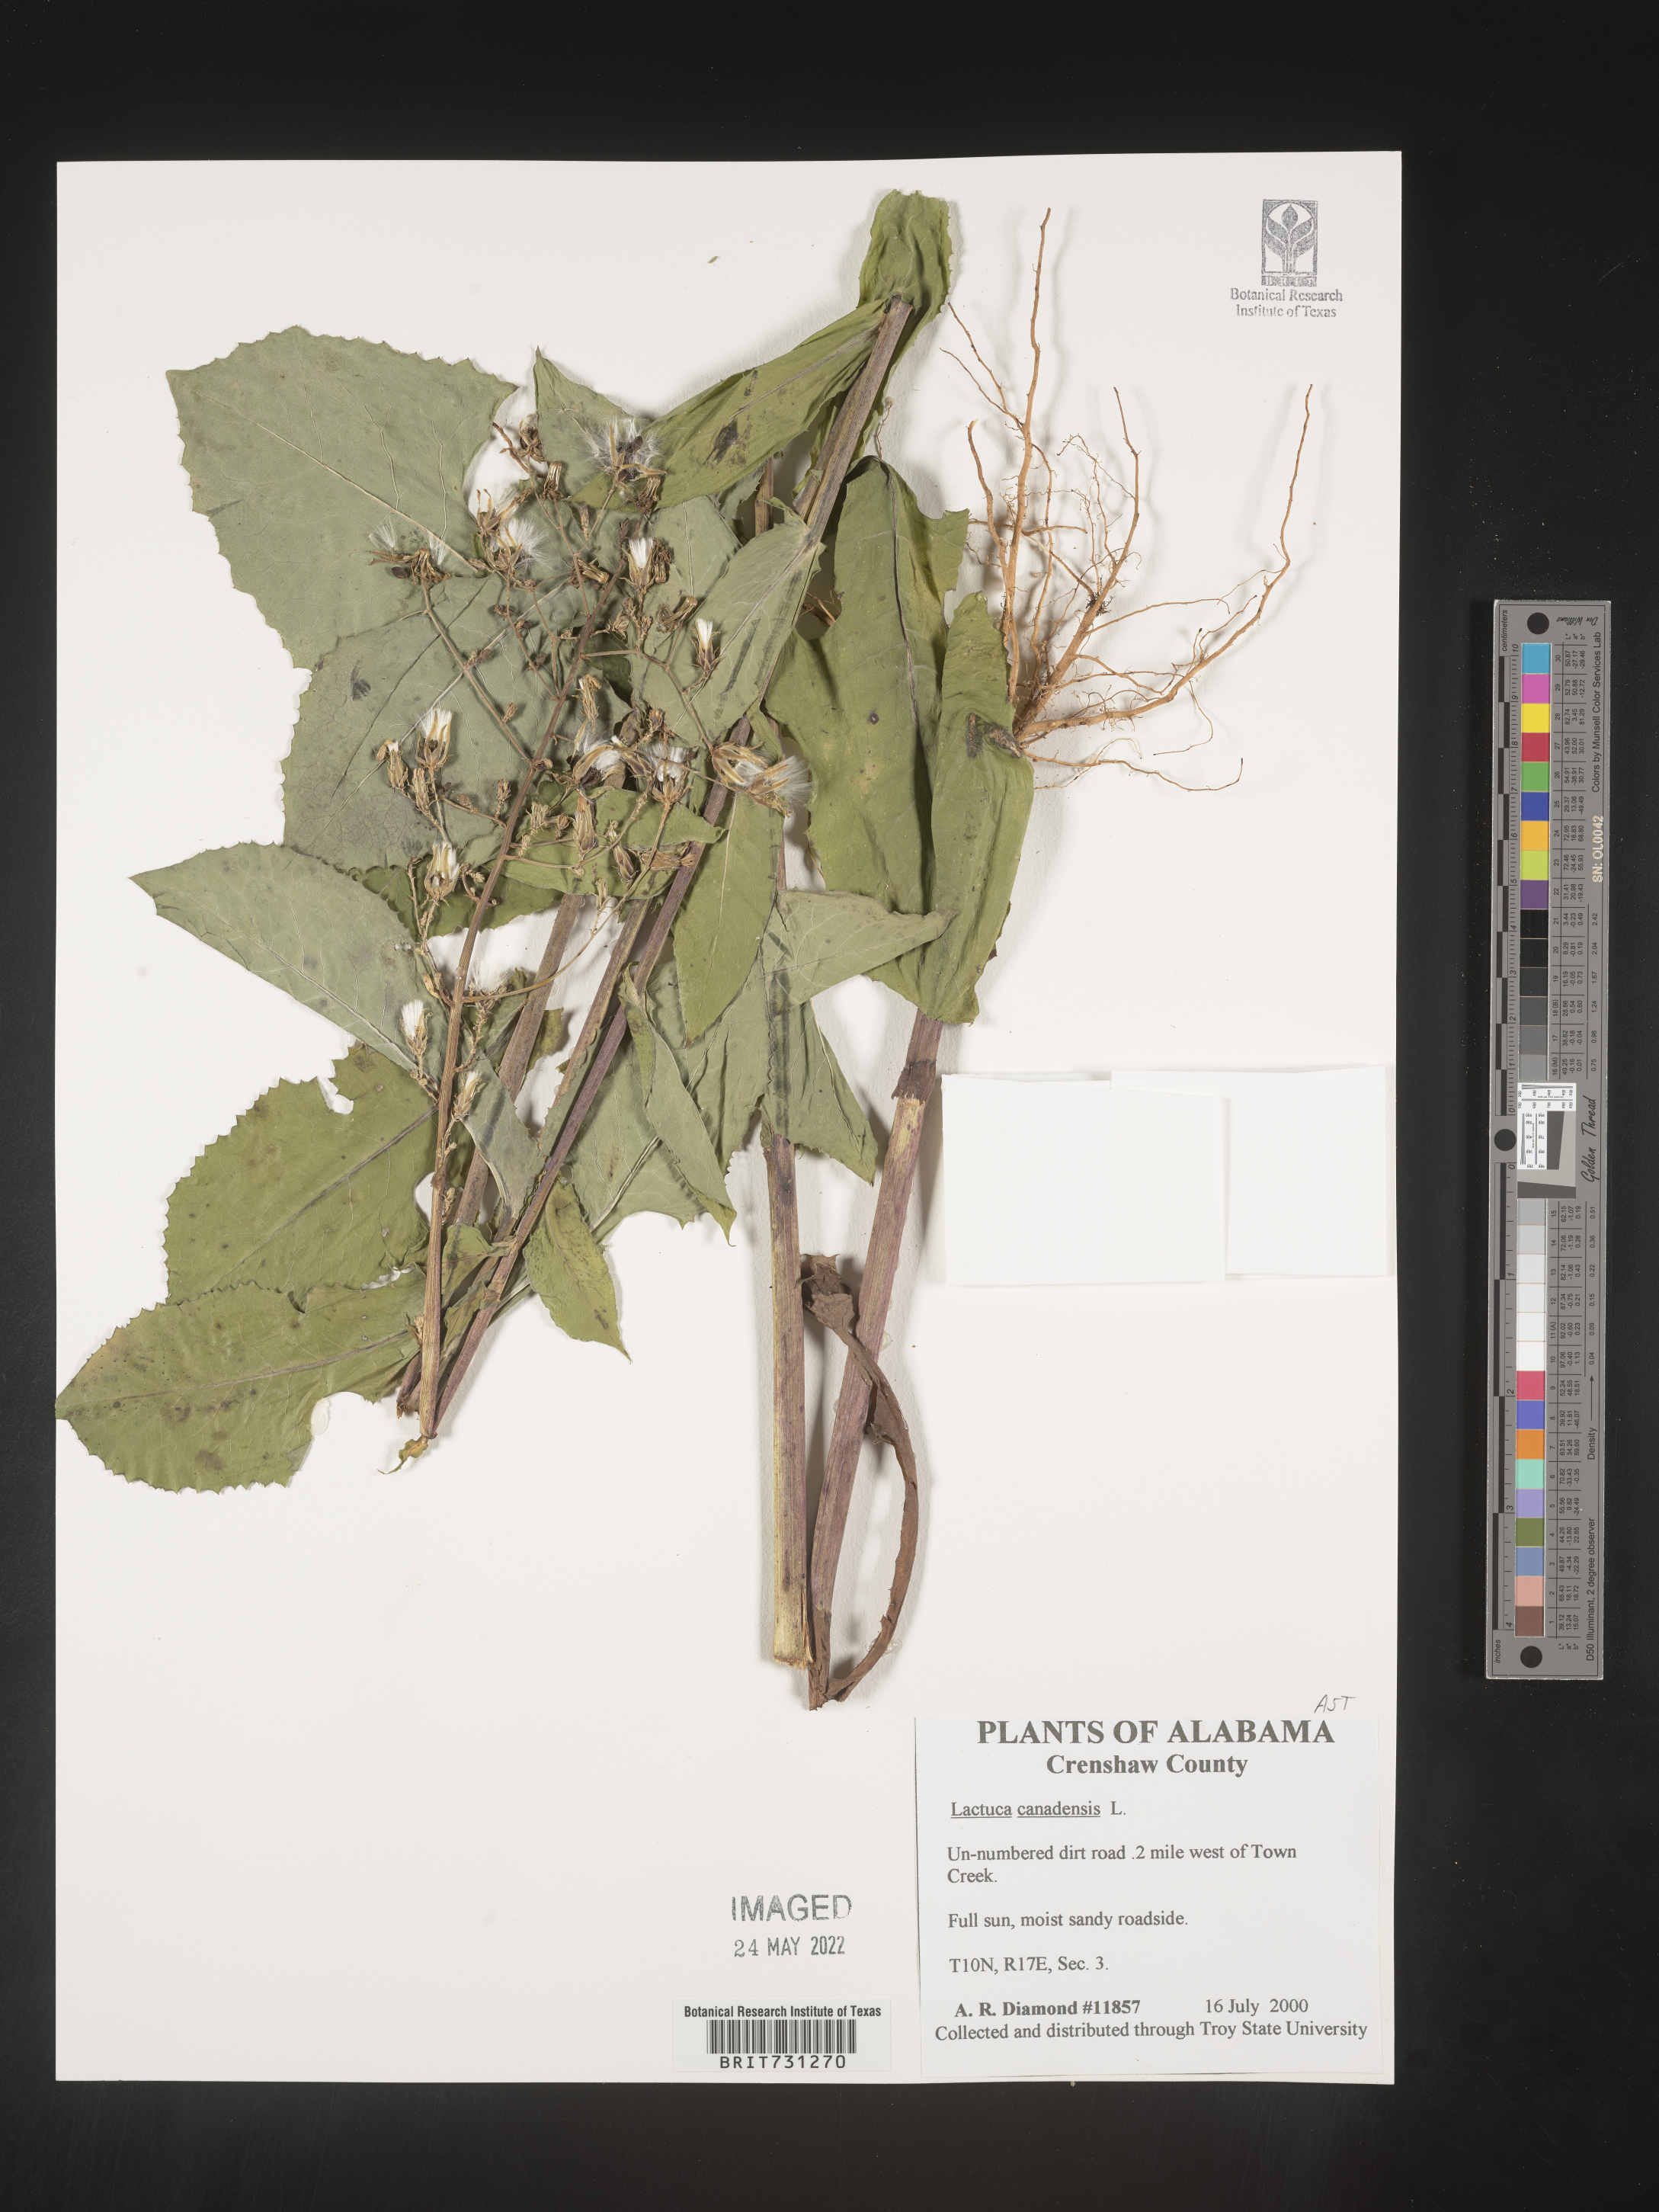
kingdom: Plantae
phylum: Tracheophyta
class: Magnoliopsida
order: Asterales
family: Asteraceae
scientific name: Asteraceae
